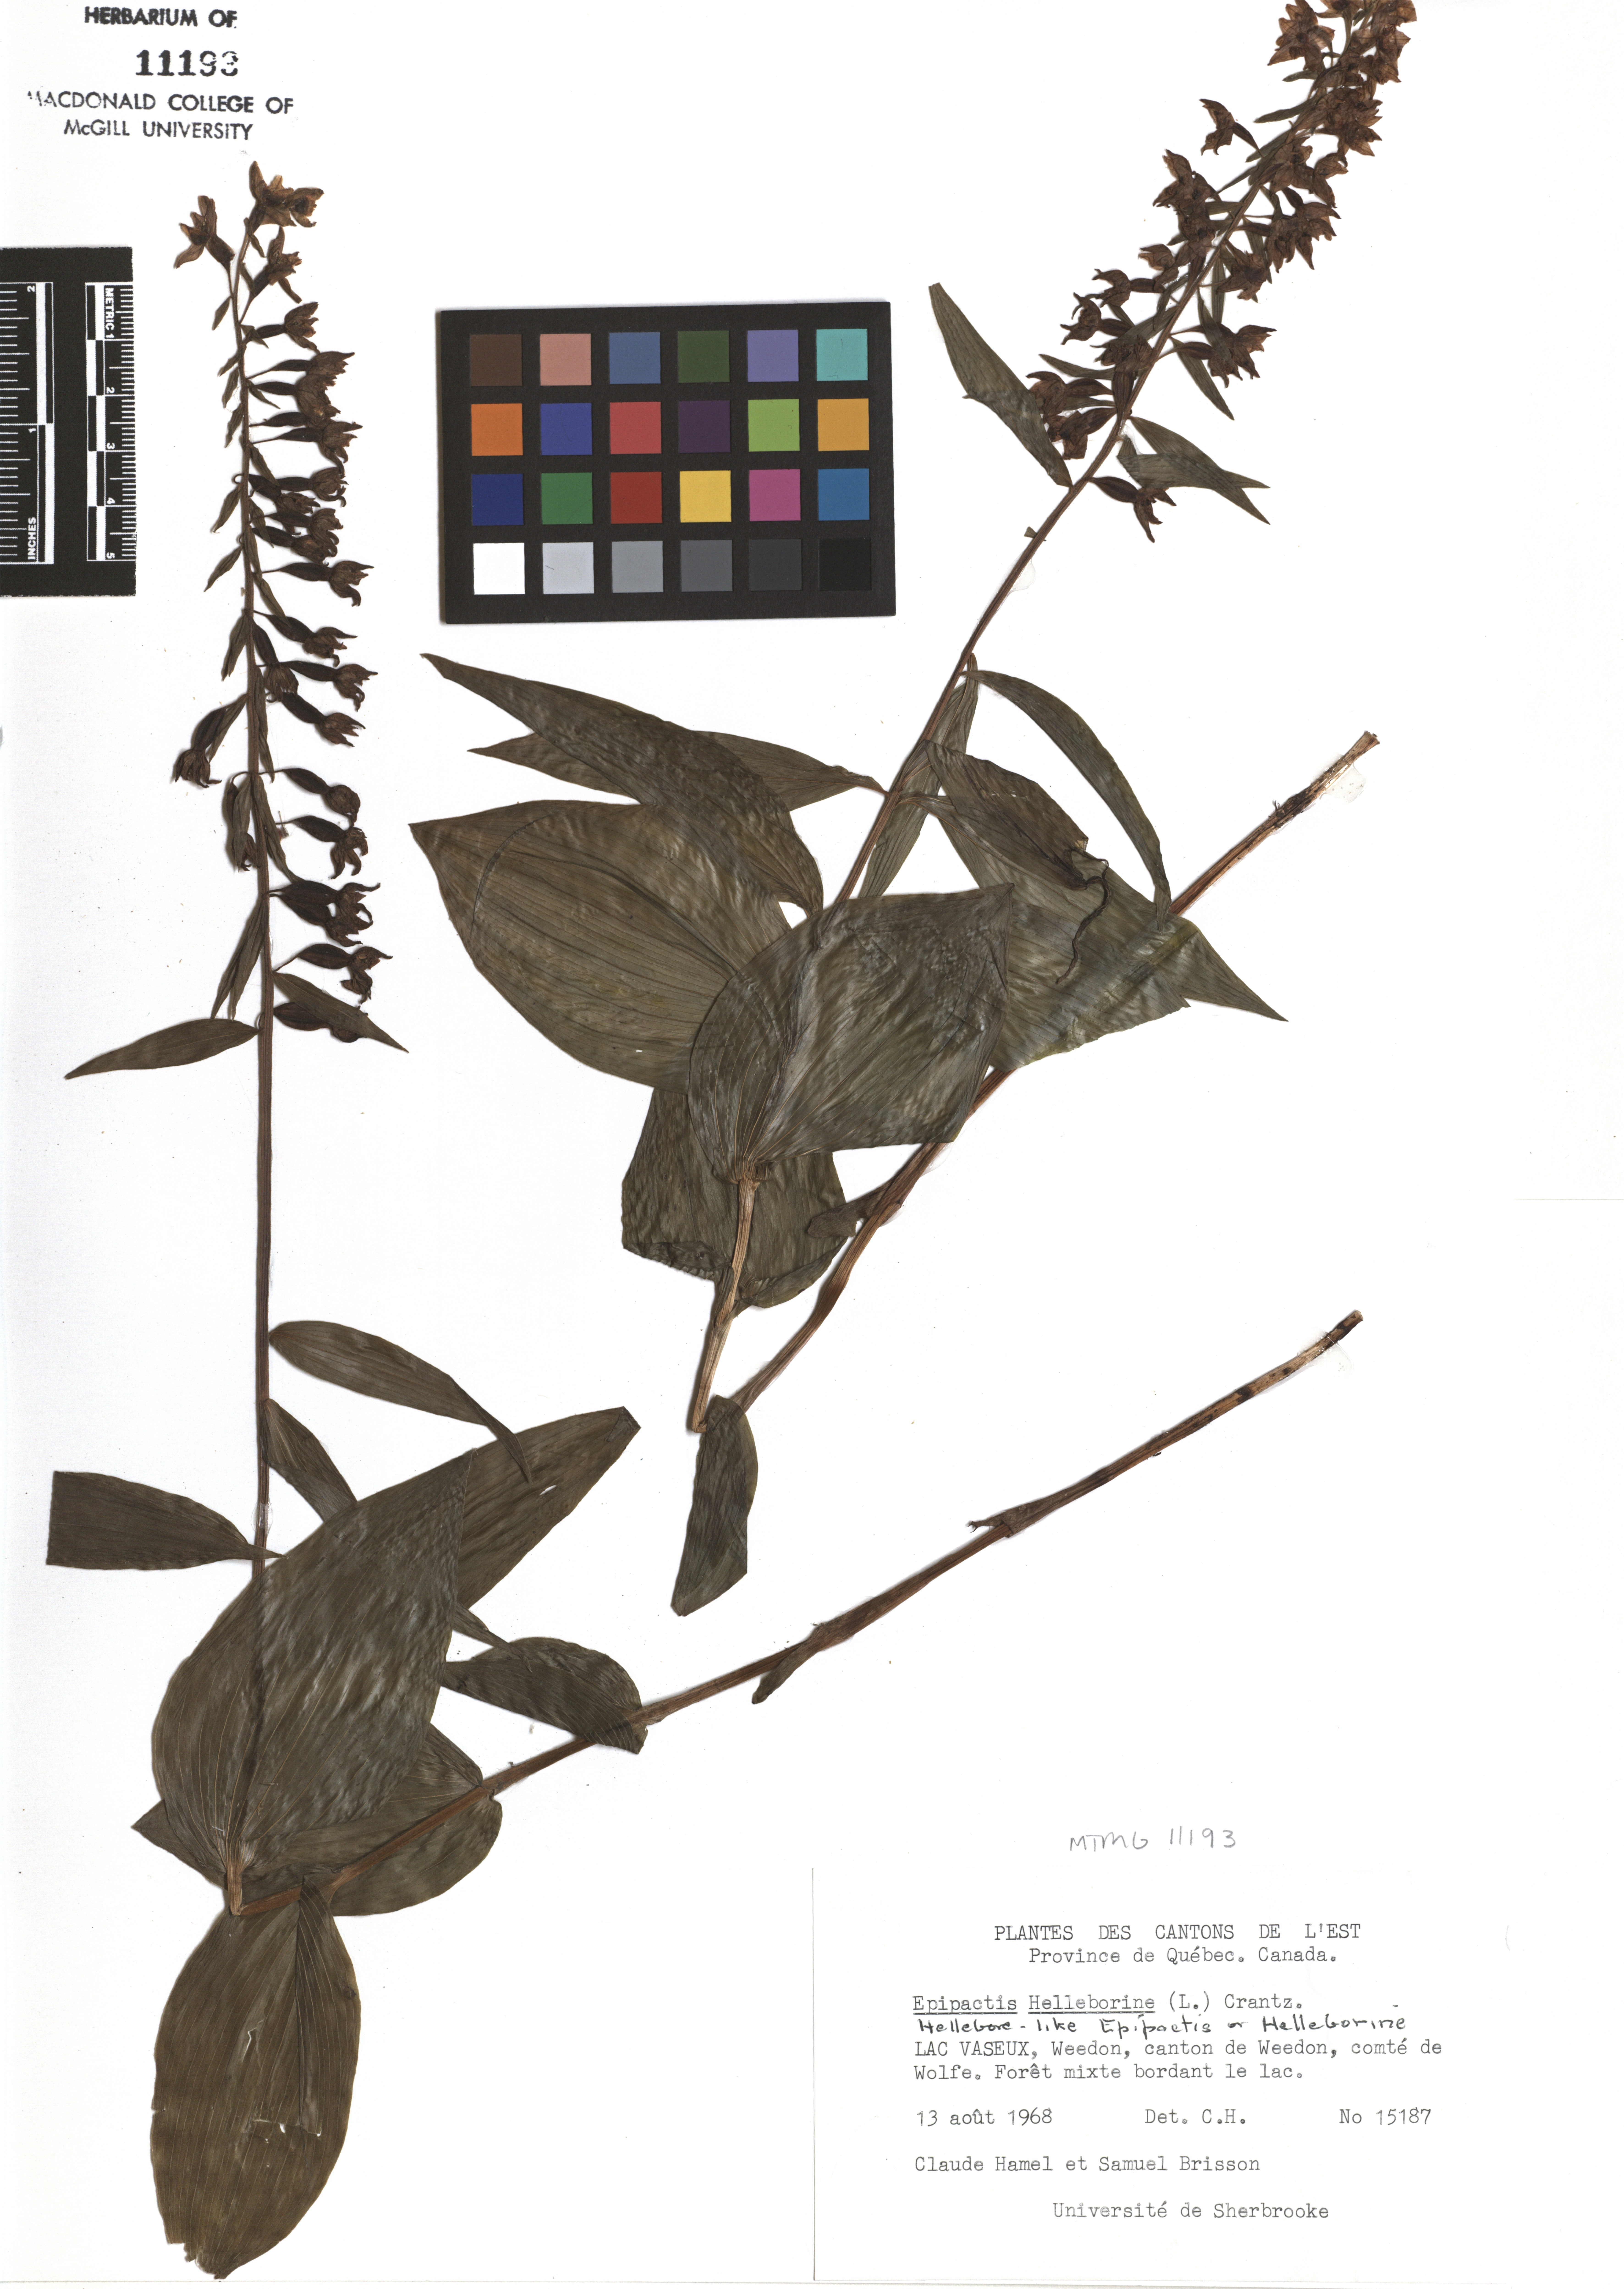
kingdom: Plantae
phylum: Tracheophyta
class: Liliopsida
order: Asparagales
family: Orchidaceae
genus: Epipactis
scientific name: Epipactis helleborine
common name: Broad-leaved helleborine
